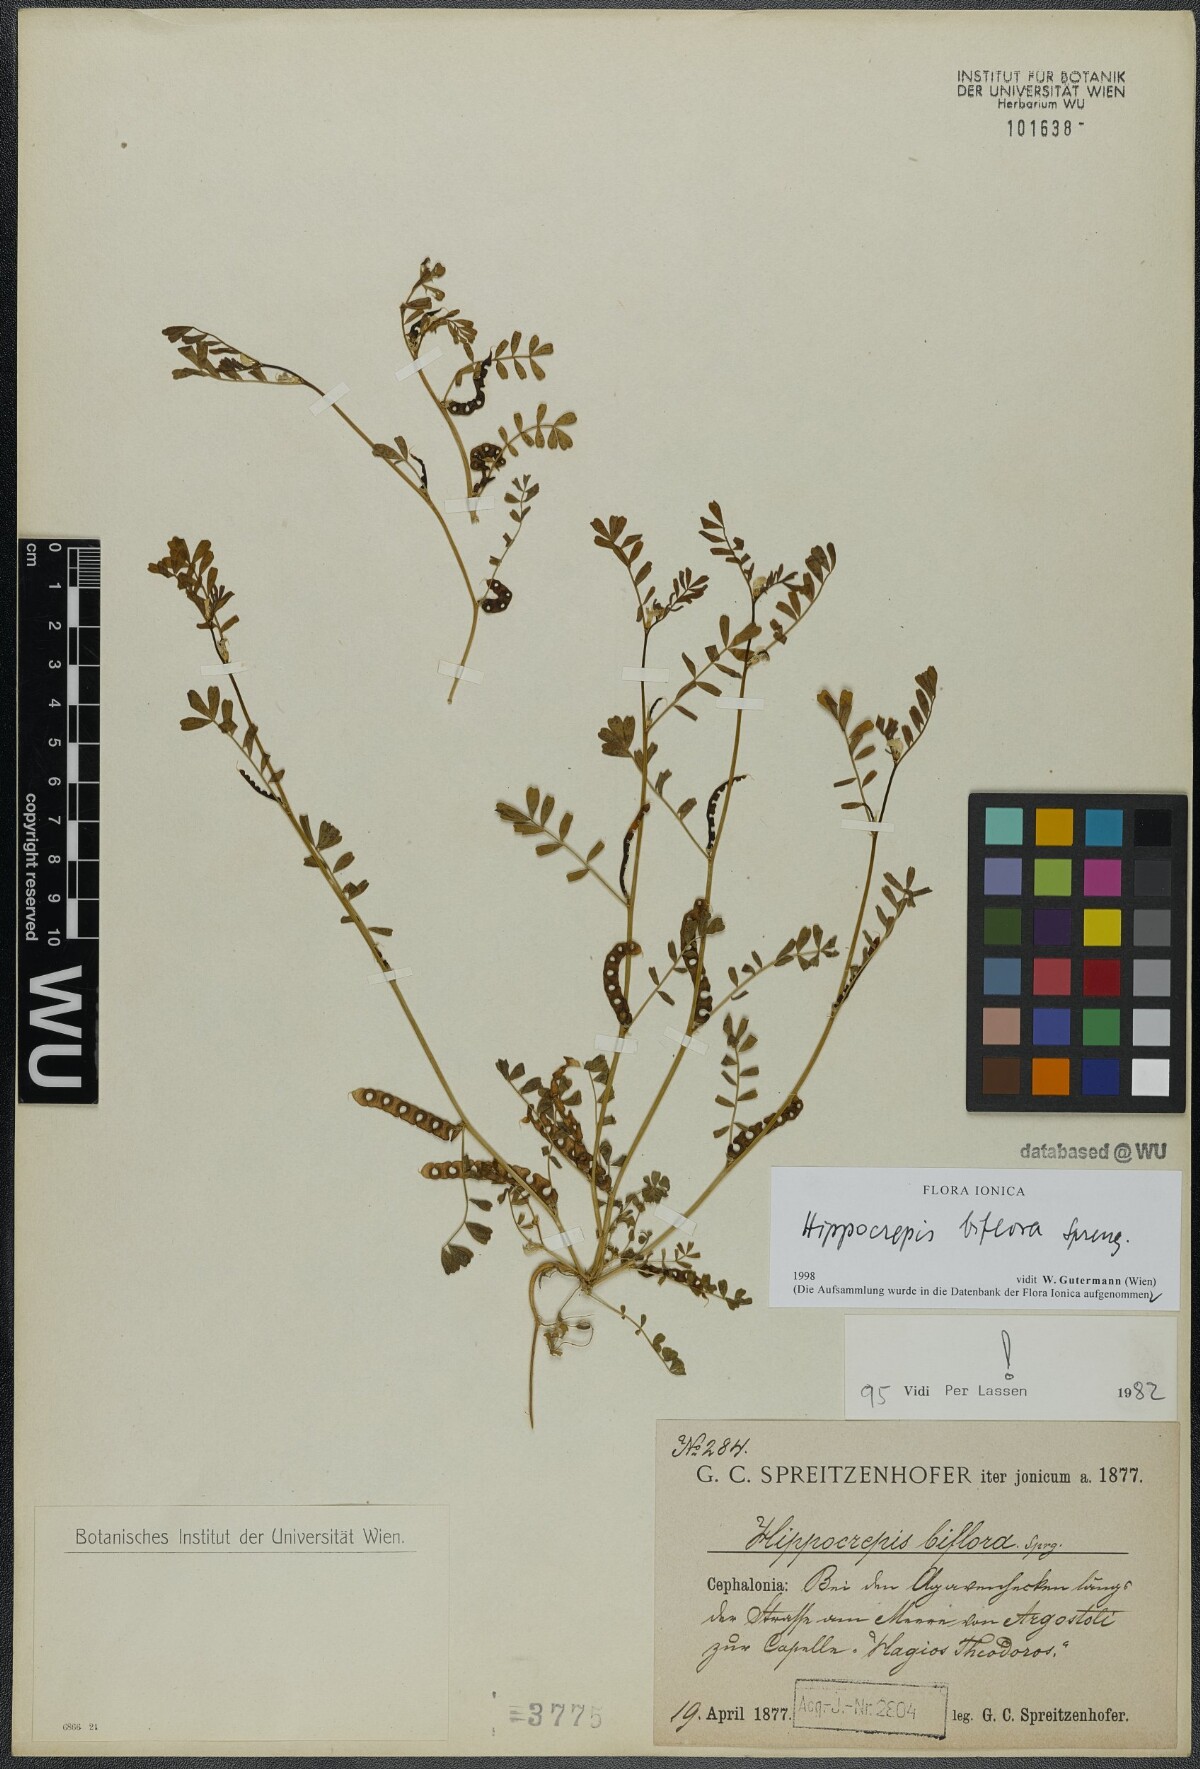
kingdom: Plantae
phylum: Tracheophyta
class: Magnoliopsida
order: Fabales
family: Fabaceae
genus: Hippocrepis
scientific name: Hippocrepis biflora
